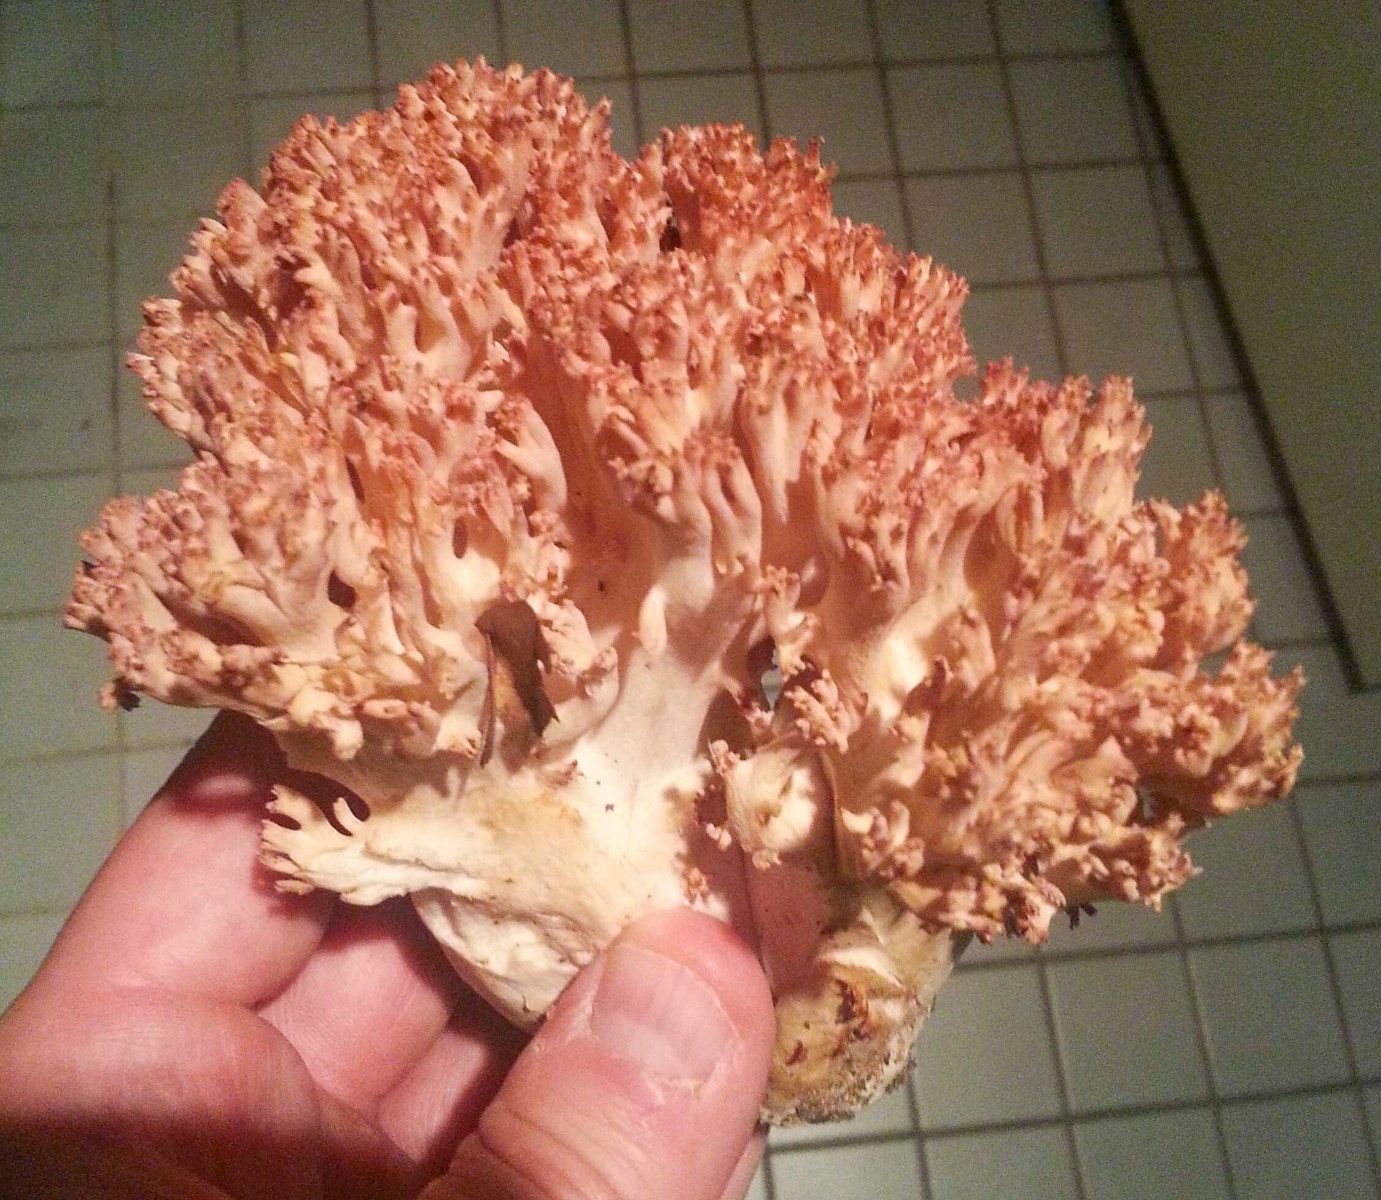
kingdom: Fungi
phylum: Basidiomycota
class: Agaricomycetes
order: Gomphales
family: Gomphaceae
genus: Ramaria
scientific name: Ramaria botrytis
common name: drue-koralsvamp
